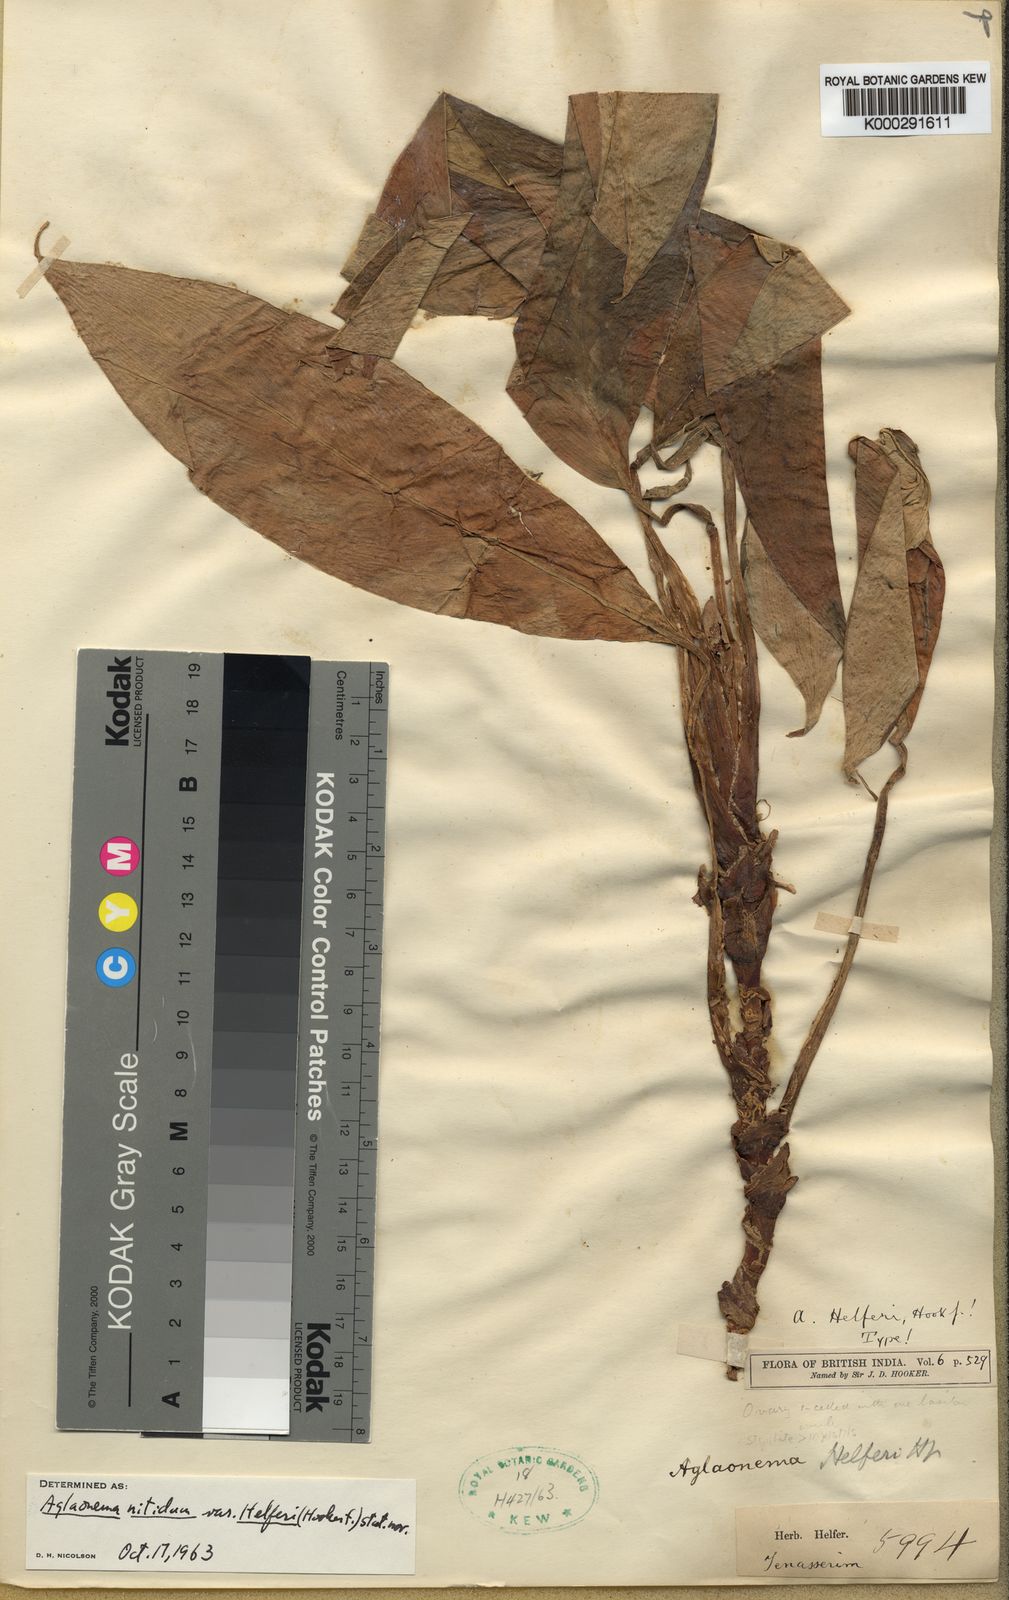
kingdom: Plantae
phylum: Tracheophyta
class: Liliopsida
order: Alismatales
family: Araceae
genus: Aglaonema
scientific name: Aglaonema nitidum
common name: Aglaonema aroid
